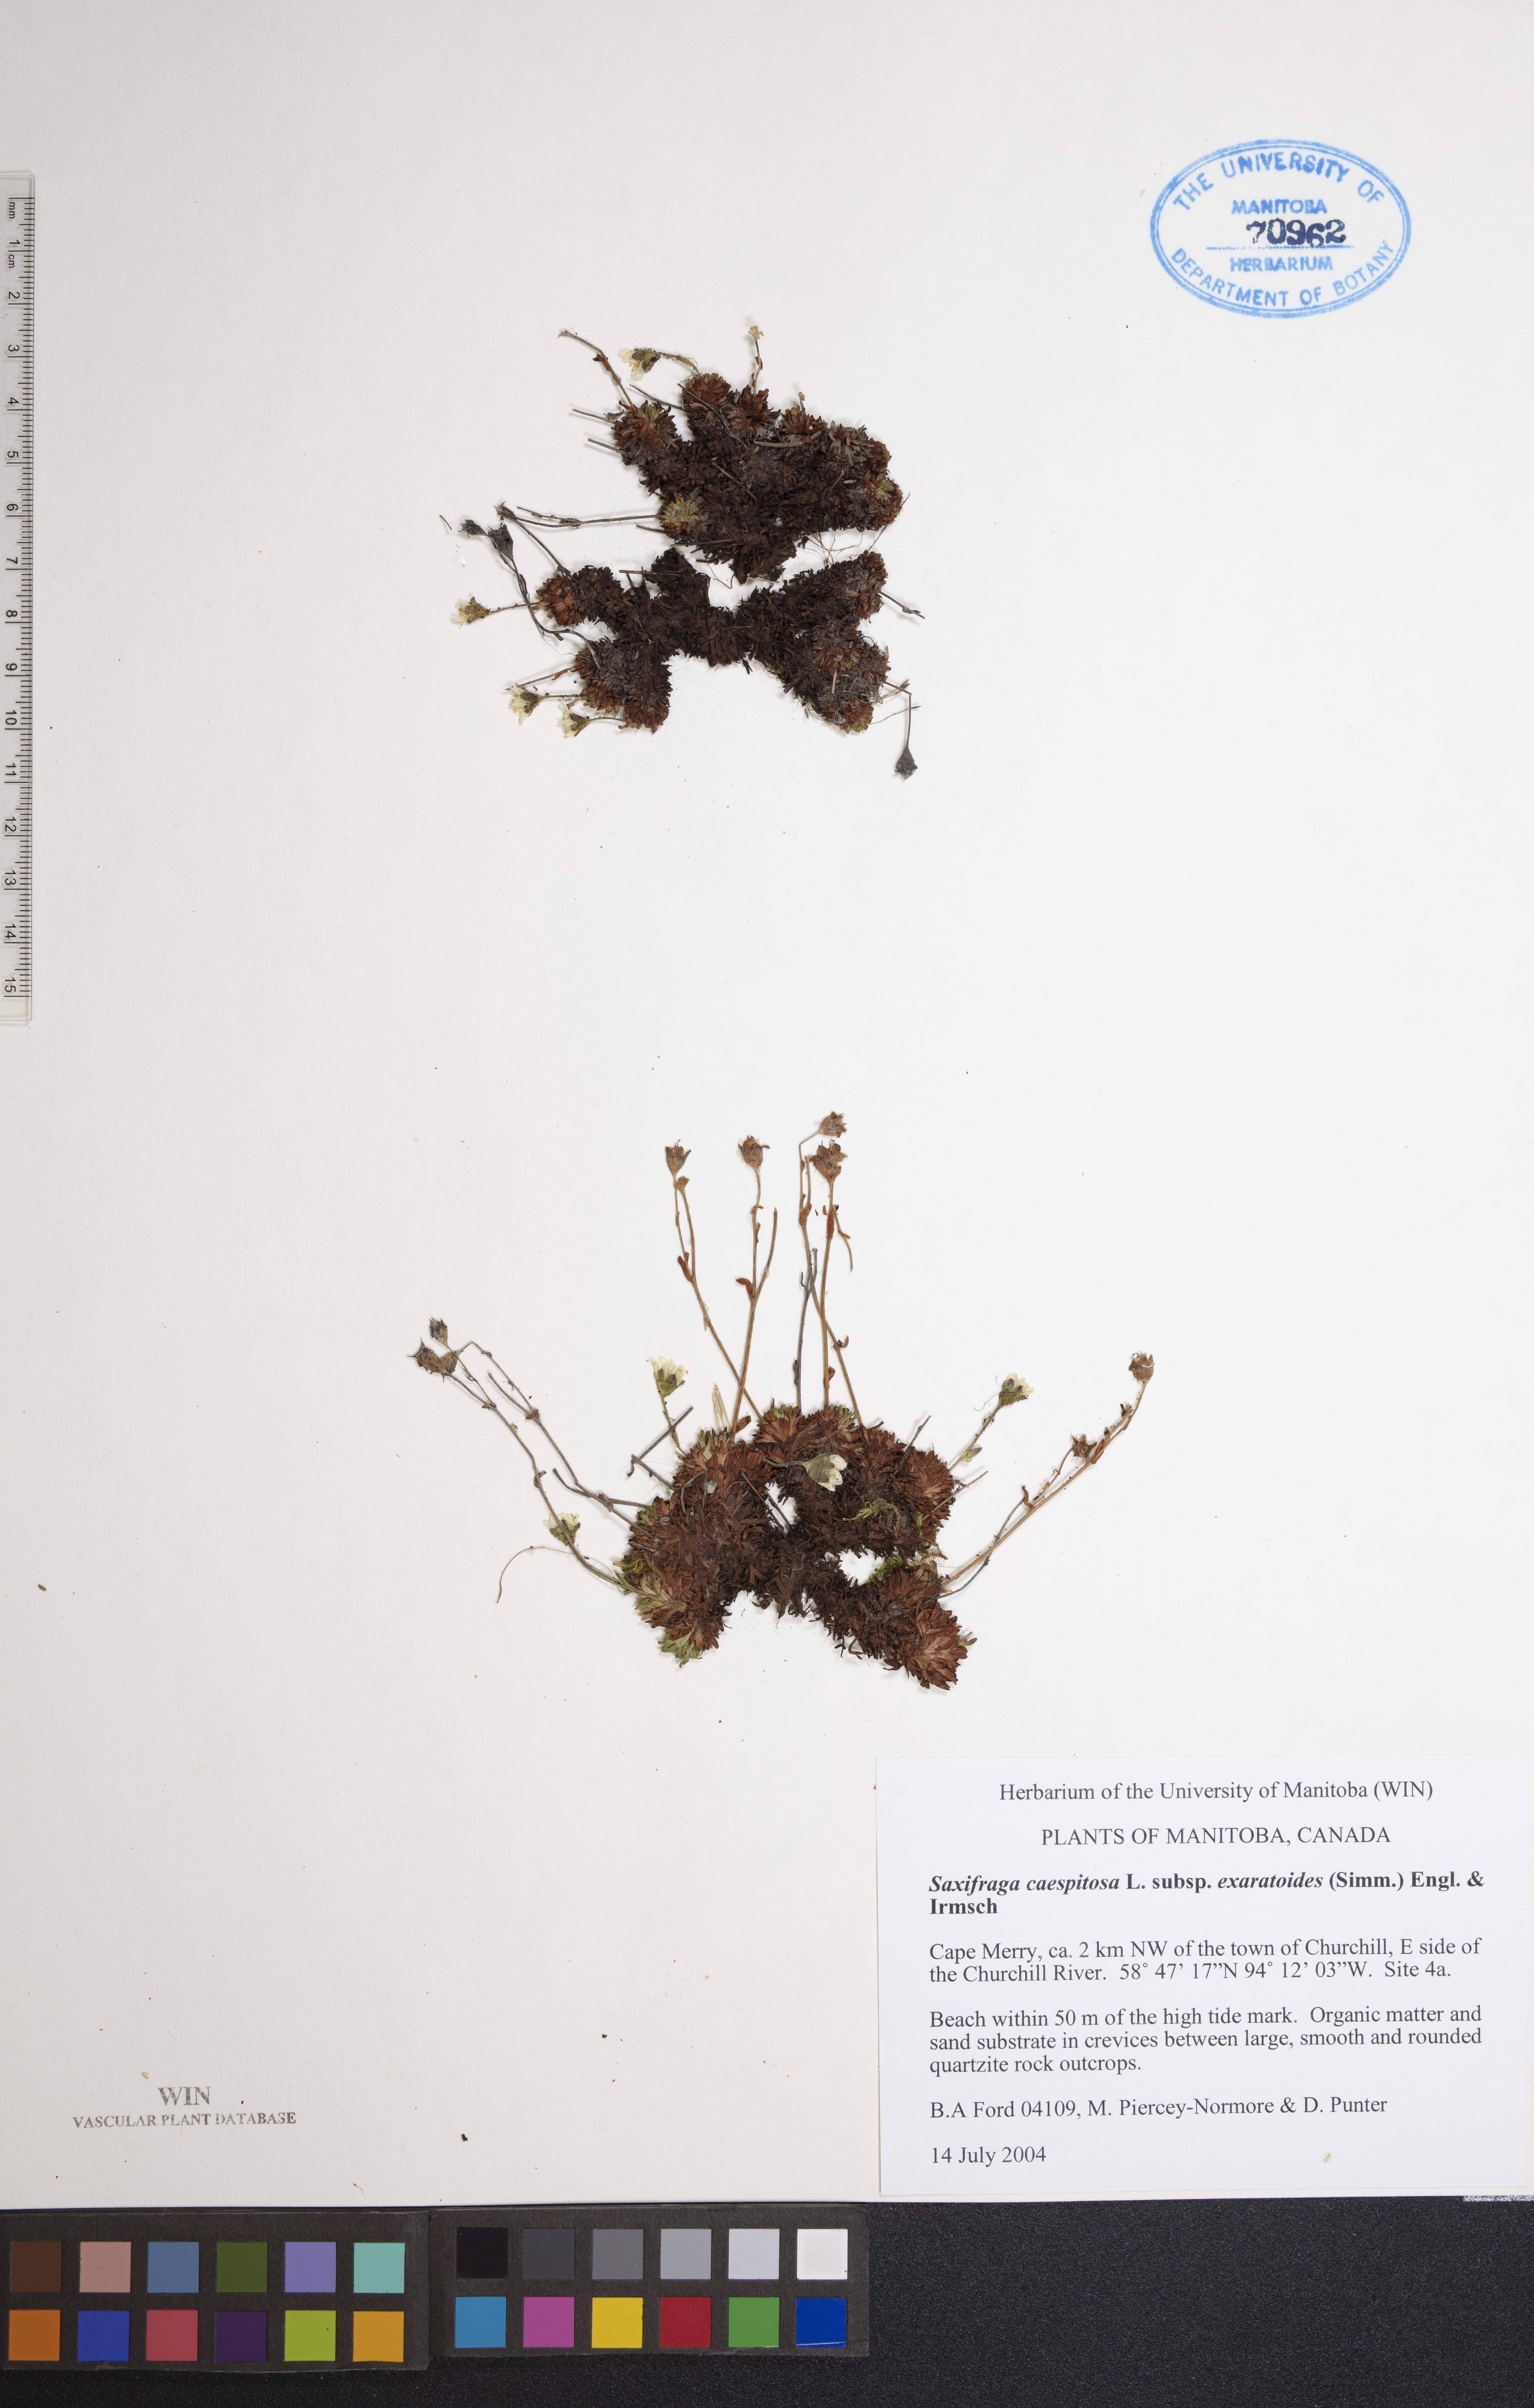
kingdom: Plantae
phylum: Tracheophyta
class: Magnoliopsida
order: Saxifragales
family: Saxifragaceae
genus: Saxifraga
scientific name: Saxifraga cespitosa
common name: Tufted saxifrage
